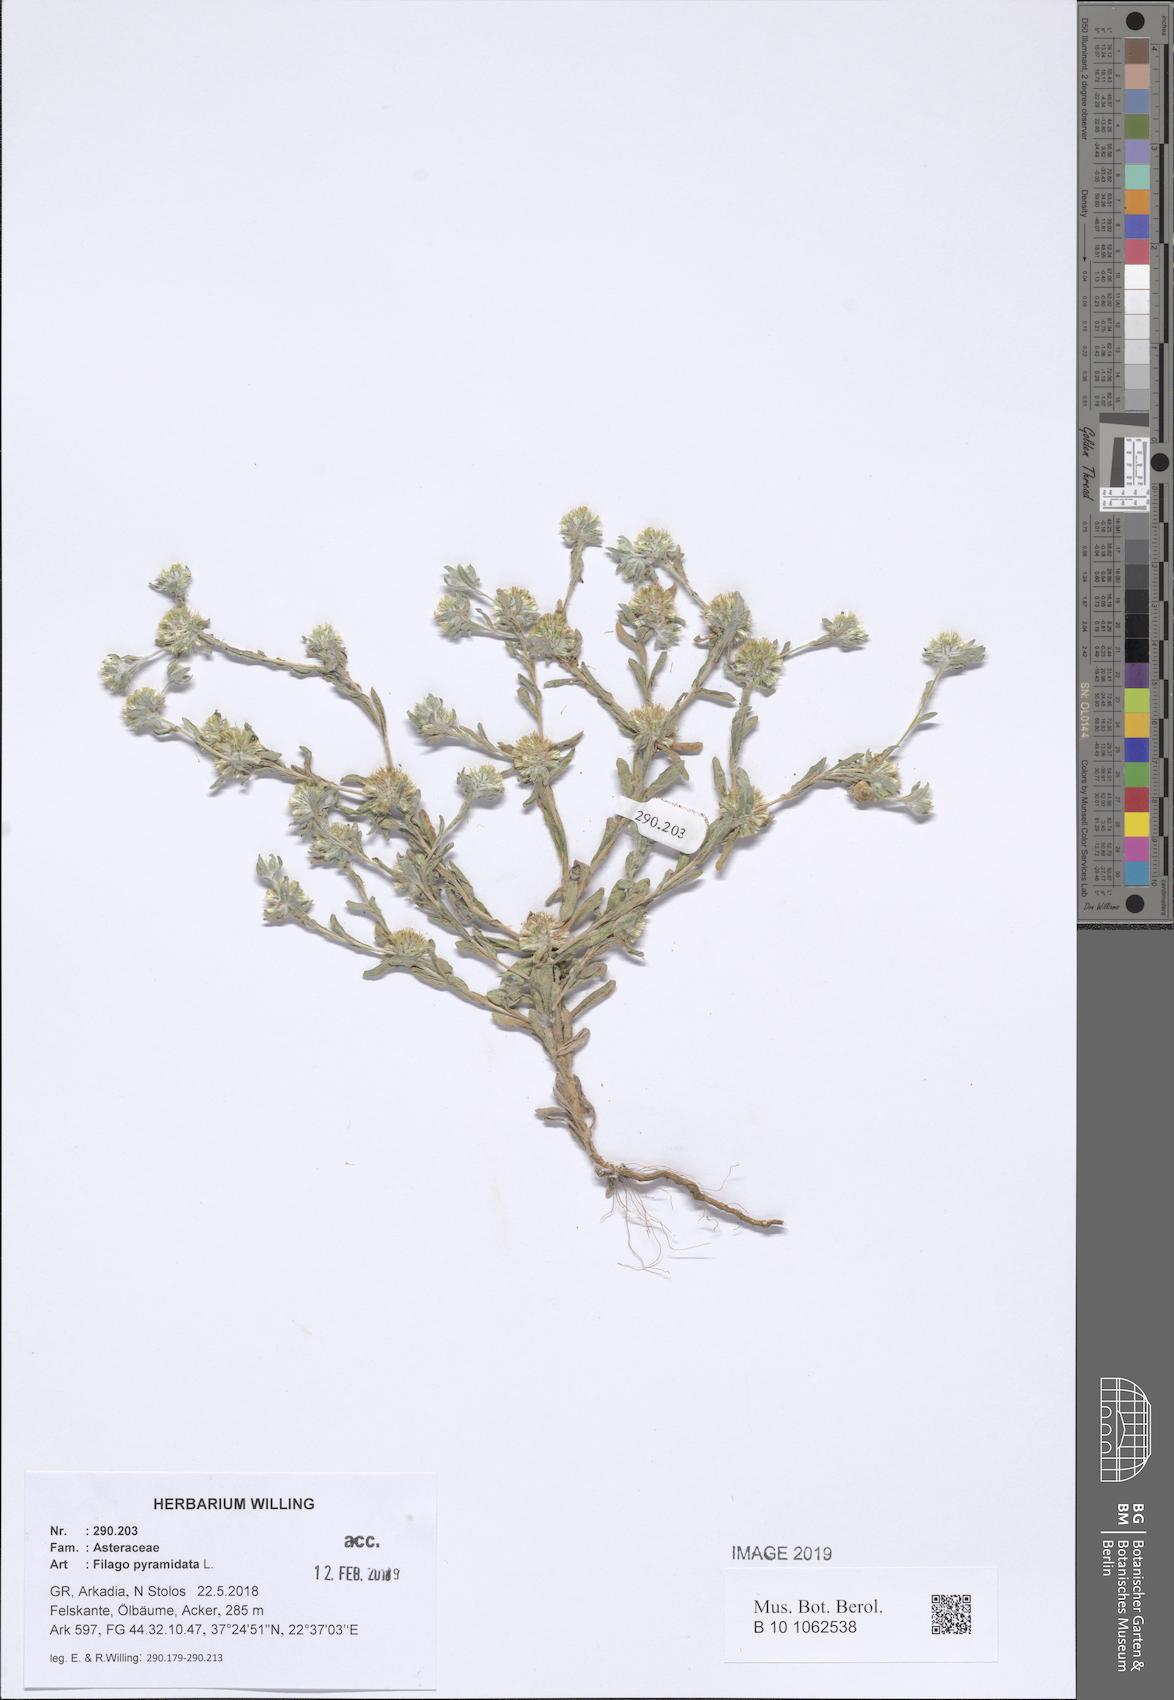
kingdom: Plantae
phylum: Tracheophyta
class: Magnoliopsida
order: Asterales
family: Asteraceae
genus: Filago
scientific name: Filago pyramidata
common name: Broad-leaved cudweed
